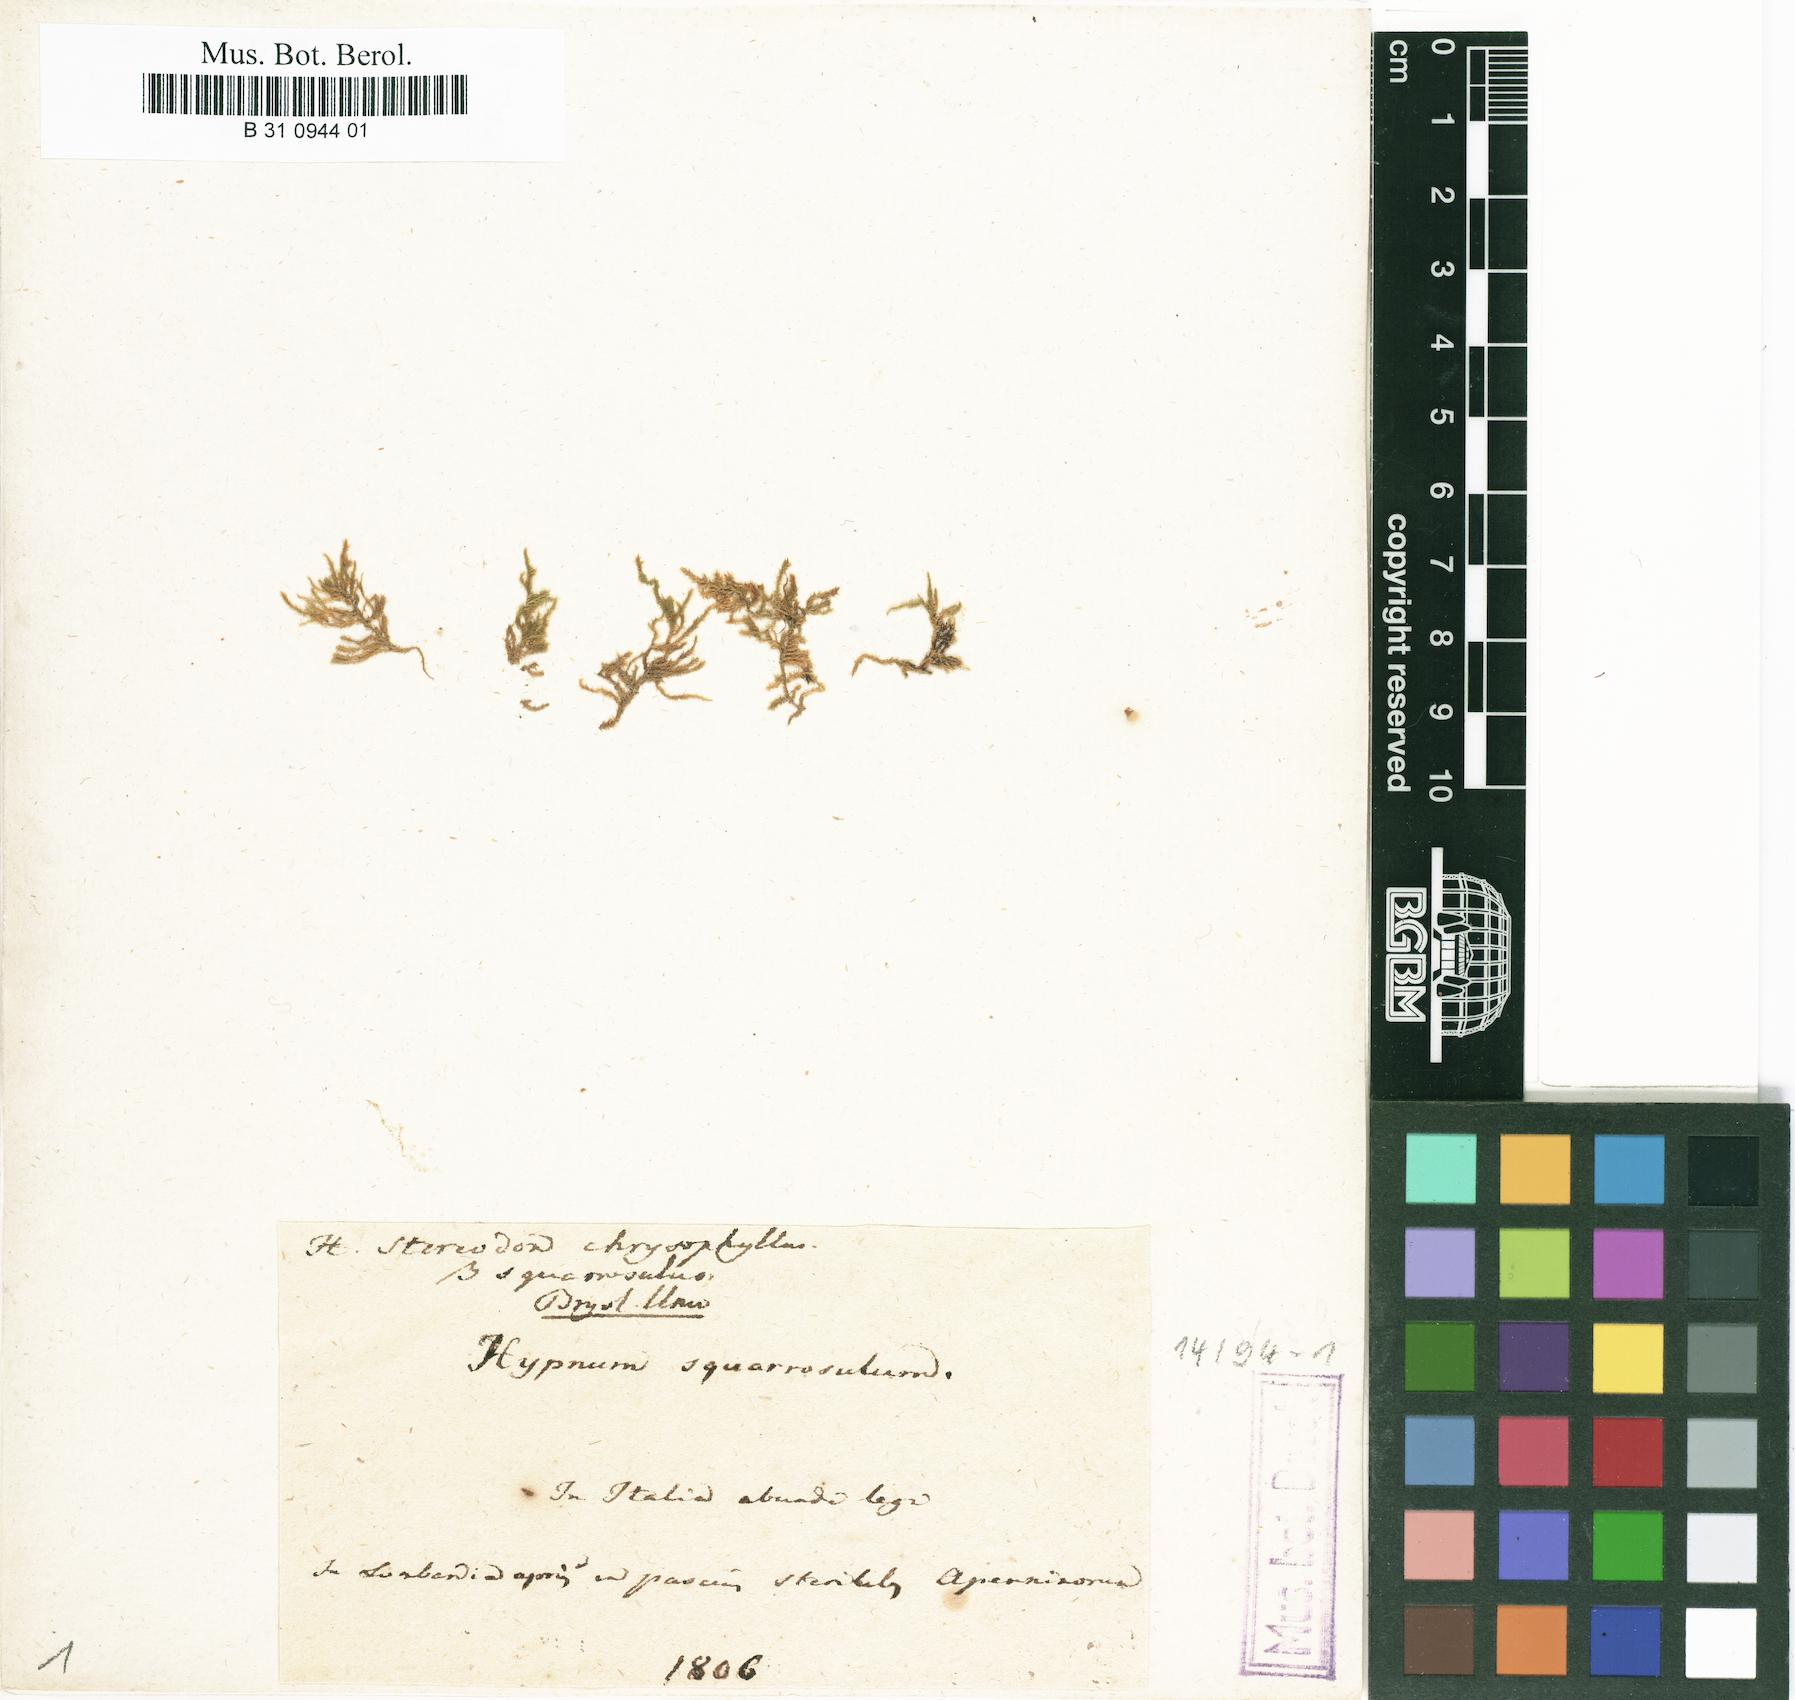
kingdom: Plantae
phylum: Bryophyta
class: Bryopsida
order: Hypnales
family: Amblystegiaceae
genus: Campylium
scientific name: Campylium chrysophyllum
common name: Goldenleaf campylium moss
